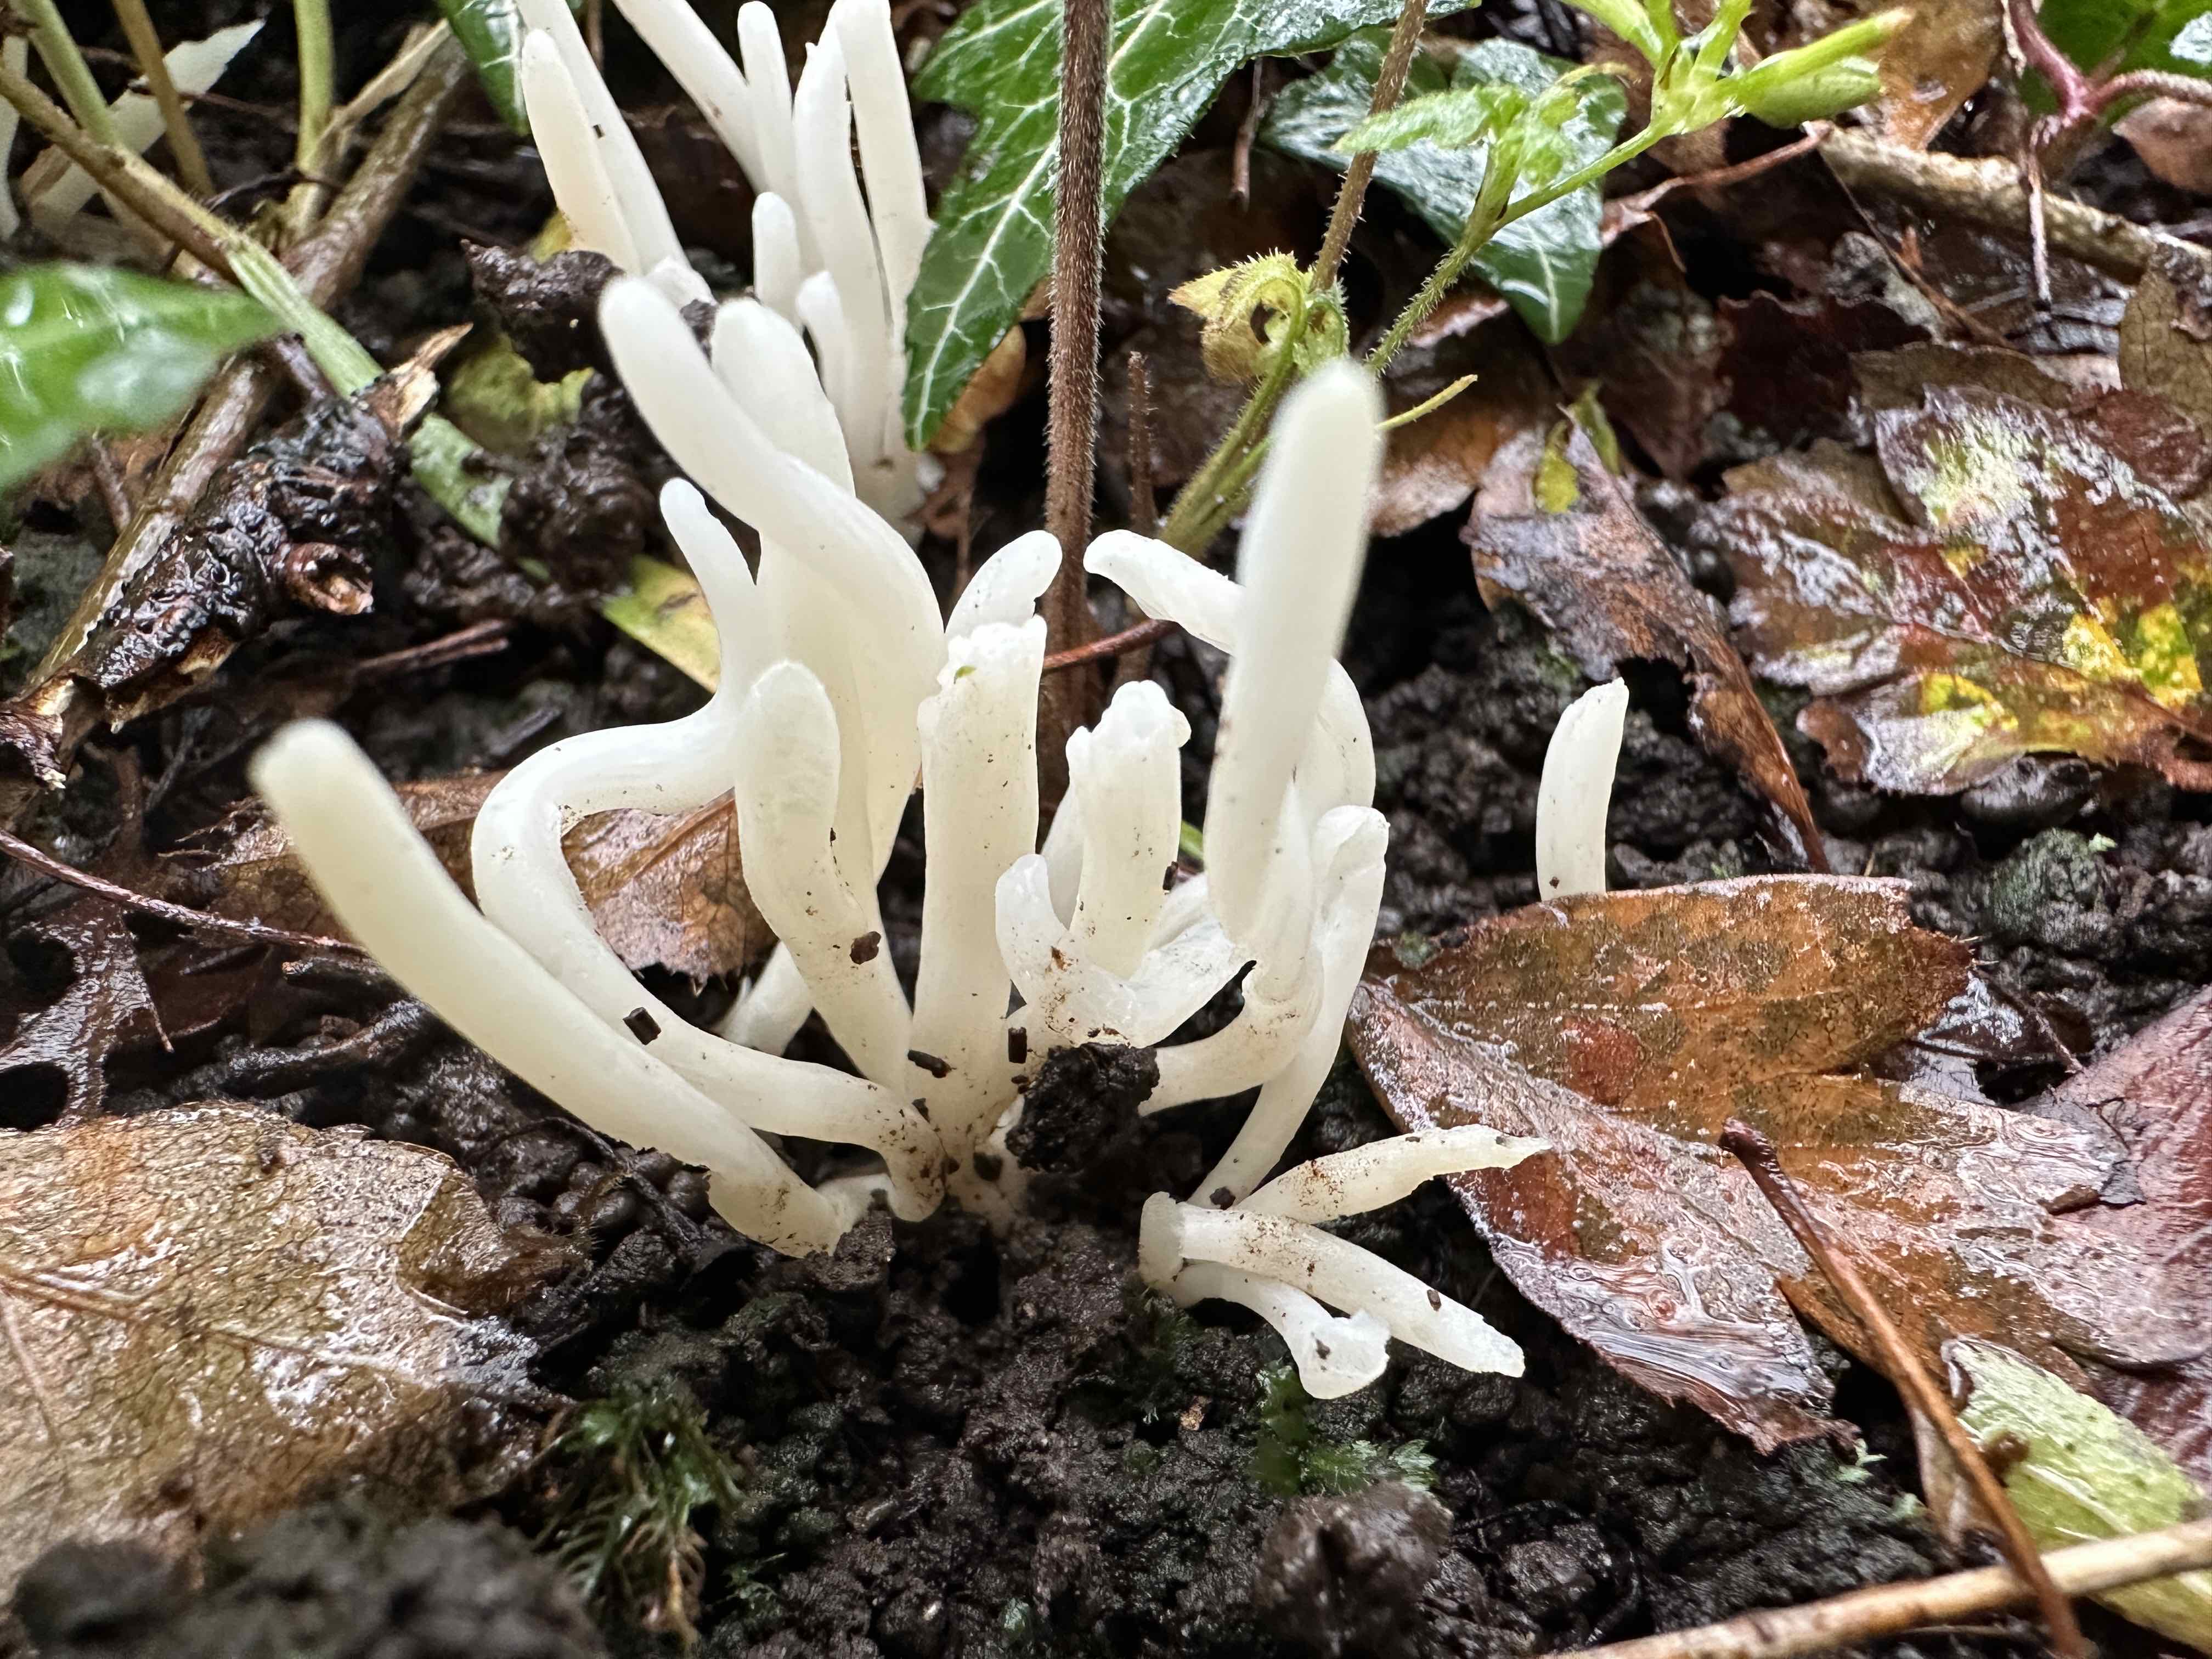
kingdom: Fungi
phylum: Basidiomycota
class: Agaricomycetes
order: Agaricales
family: Clavariaceae
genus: Clavaria
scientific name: Clavaria fragilis
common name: bugtet køllesvamp
